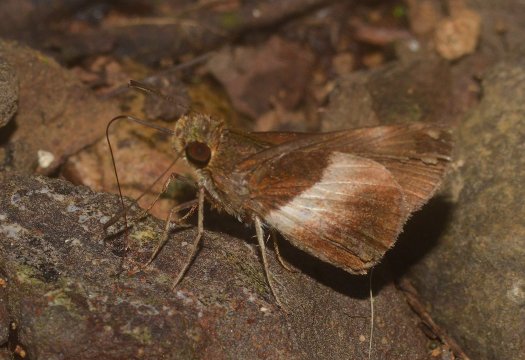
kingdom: Animalia
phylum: Arthropoda
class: Insecta
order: Lepidoptera
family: Hesperiidae
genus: Moeris
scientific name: Moeris Remella rita
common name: Rita’s Remella
